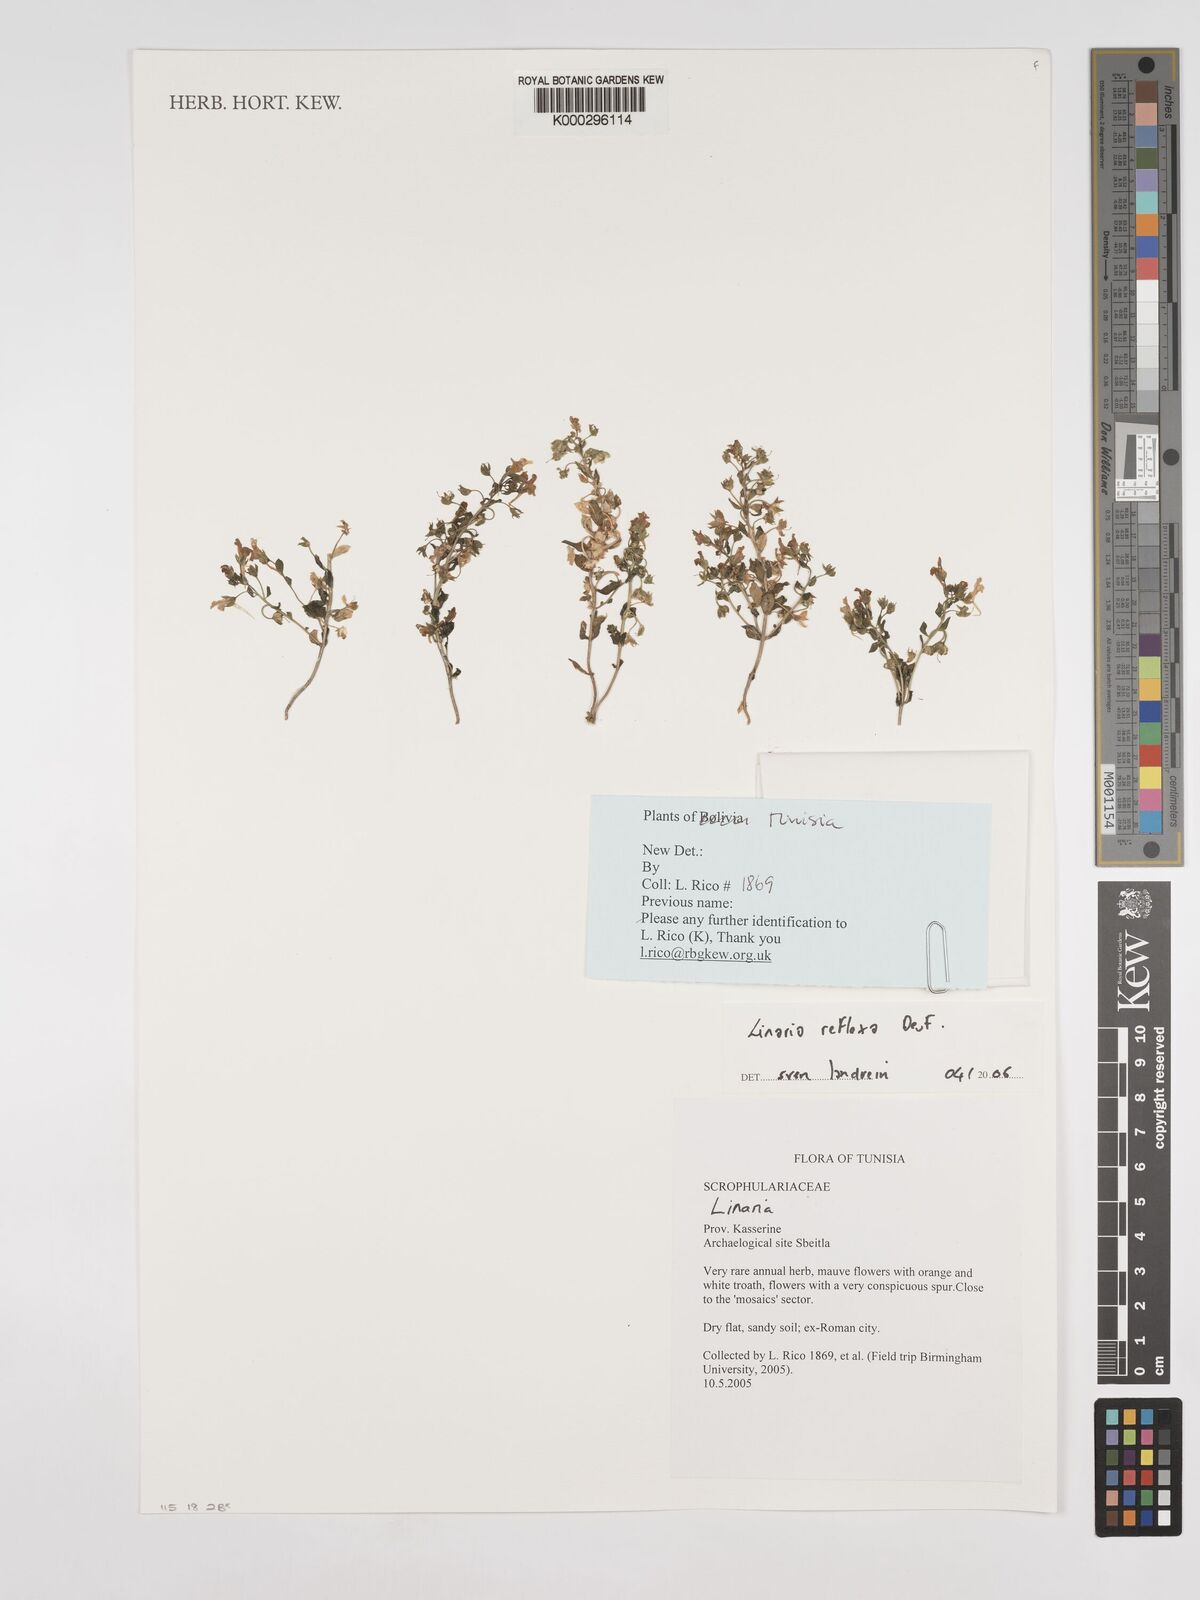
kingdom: Plantae
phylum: Tracheophyta
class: Magnoliopsida
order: Lamiales
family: Plantaginaceae
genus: Linaria
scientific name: Linaria reflexa
